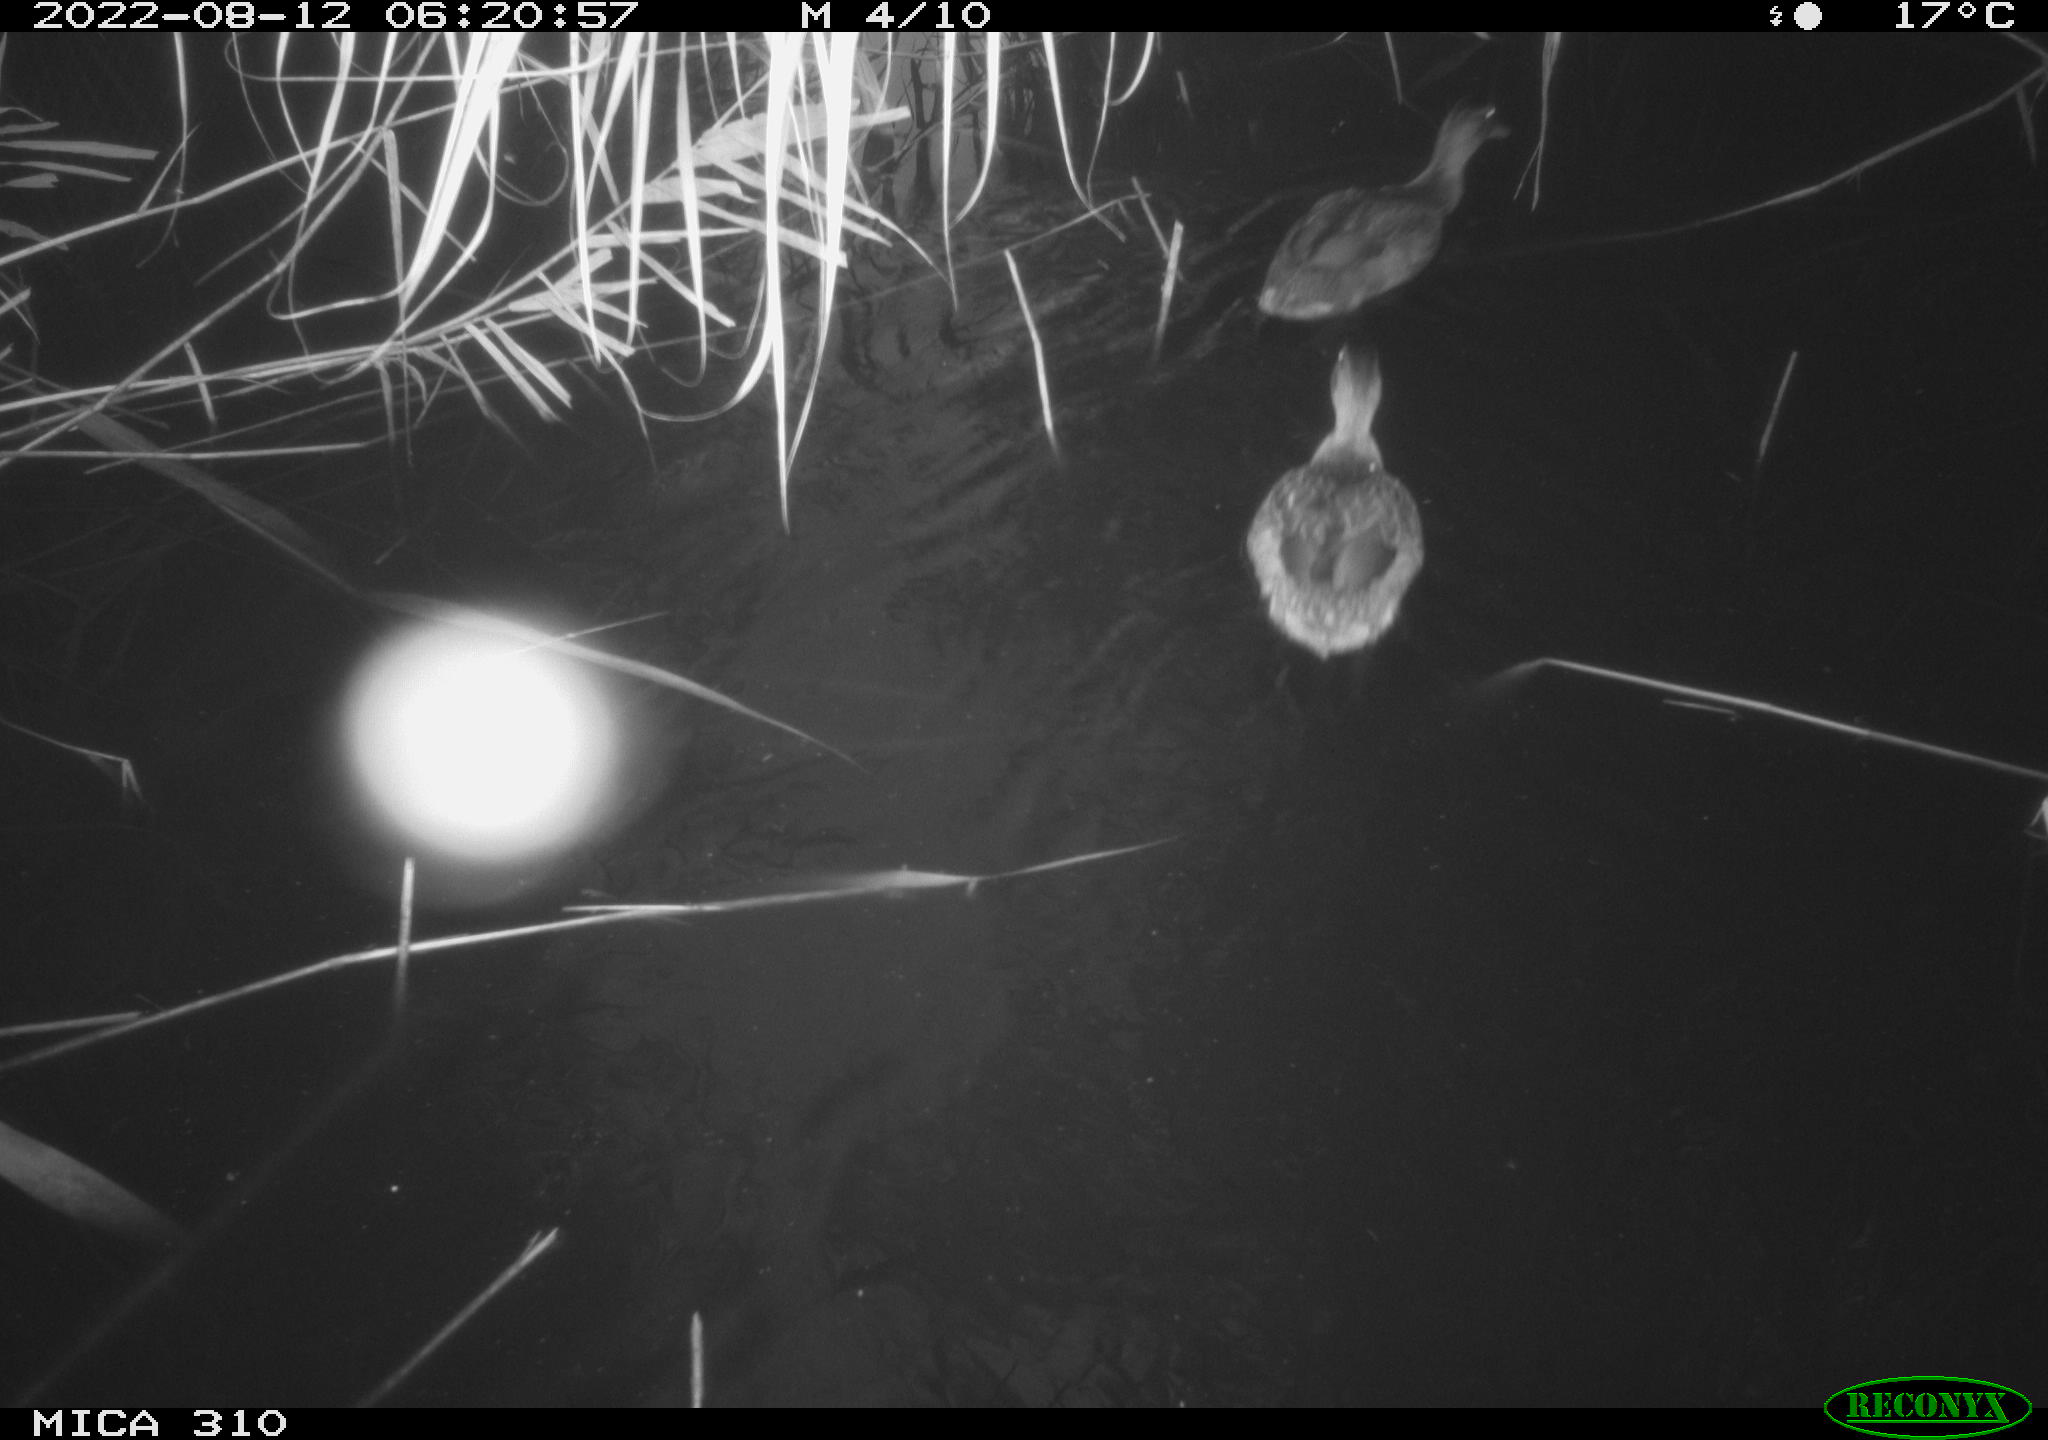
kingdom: Animalia
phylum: Chordata
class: Aves
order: Anseriformes
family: Anatidae
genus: Anas
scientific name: Anas platyrhynchos
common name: Mallard
